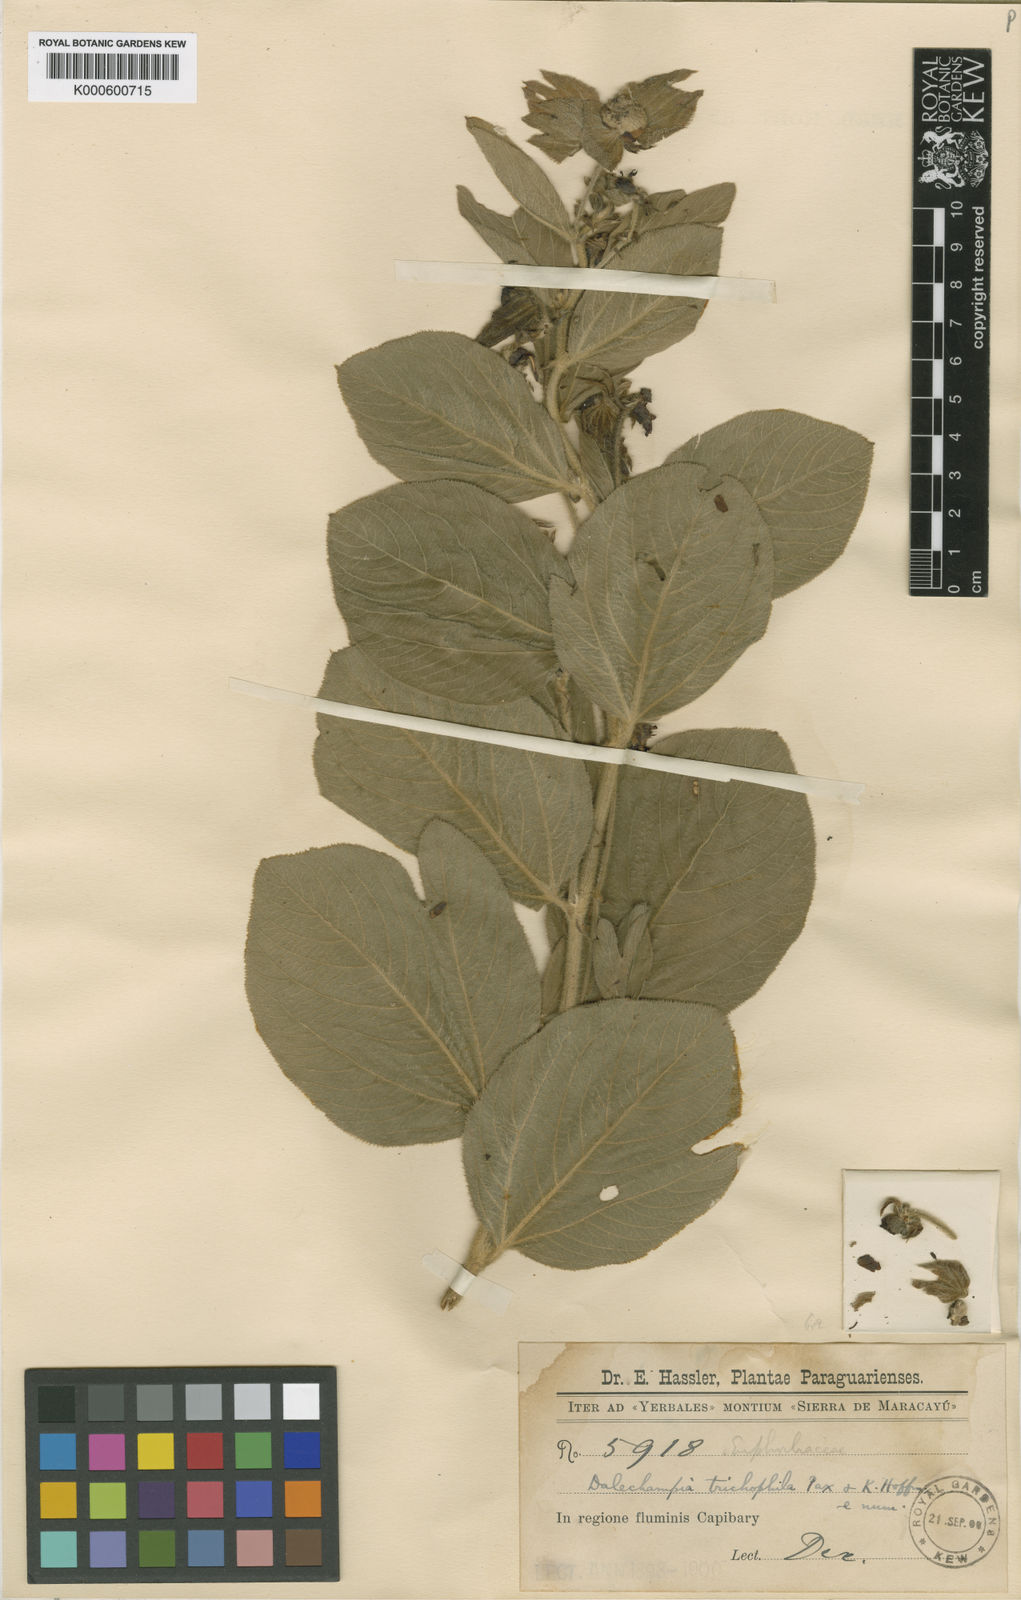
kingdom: Plantae
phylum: Tracheophyta
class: Magnoliopsida
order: Malpighiales
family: Euphorbiaceae
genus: Dalechampia
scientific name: Dalechampia weddelliana
